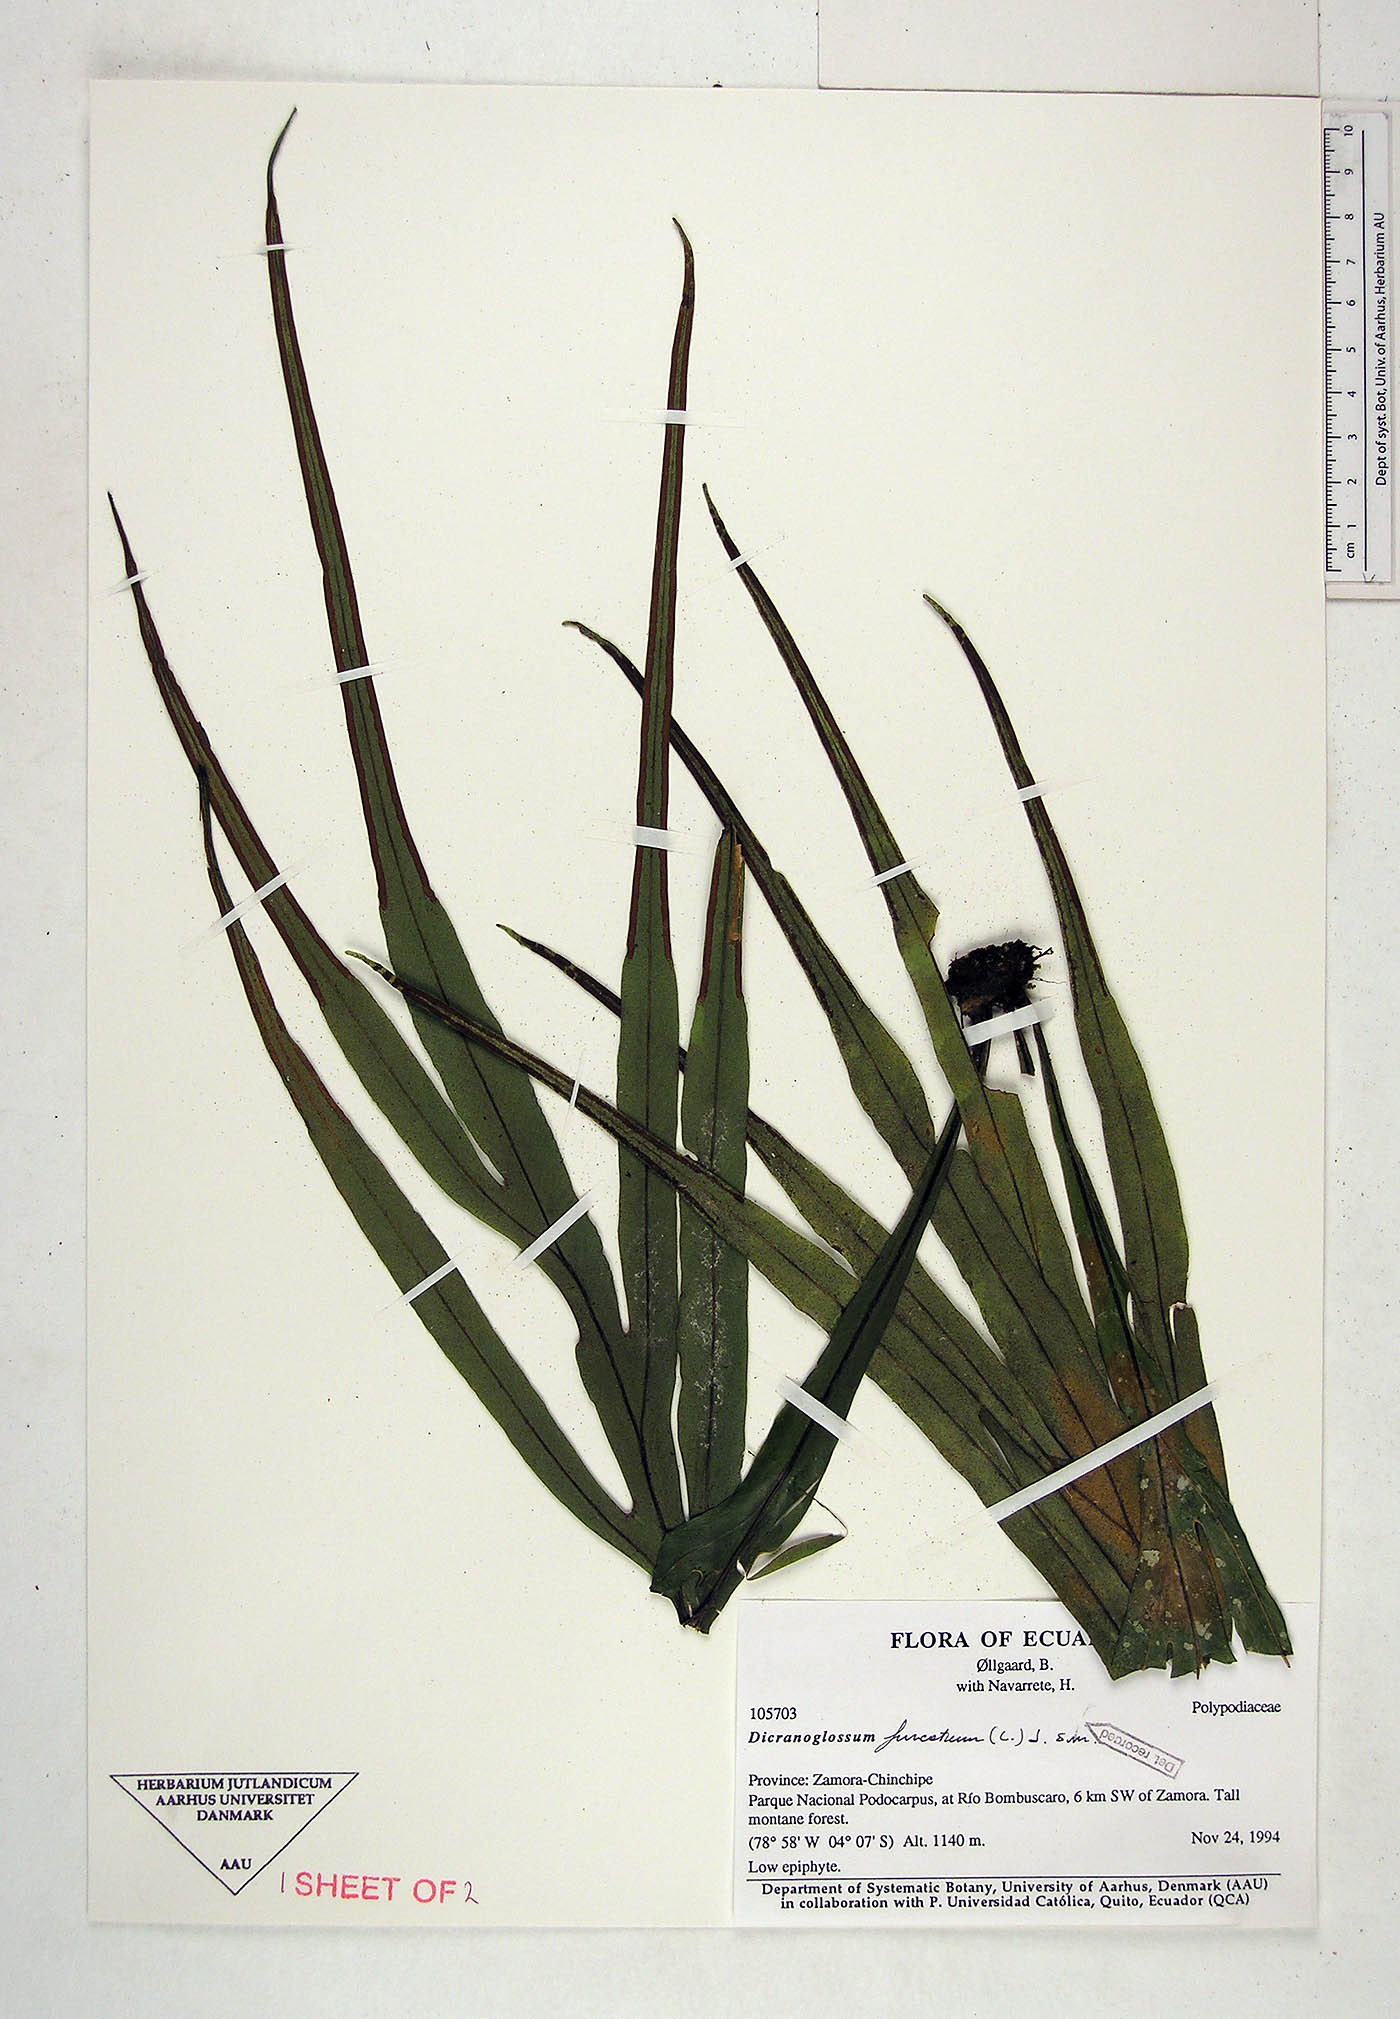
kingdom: Plantae
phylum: Tracheophyta
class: Polypodiopsida
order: Polypodiales
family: Polypodiaceae
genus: Pleopeltis
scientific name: Pleopeltis furcata
